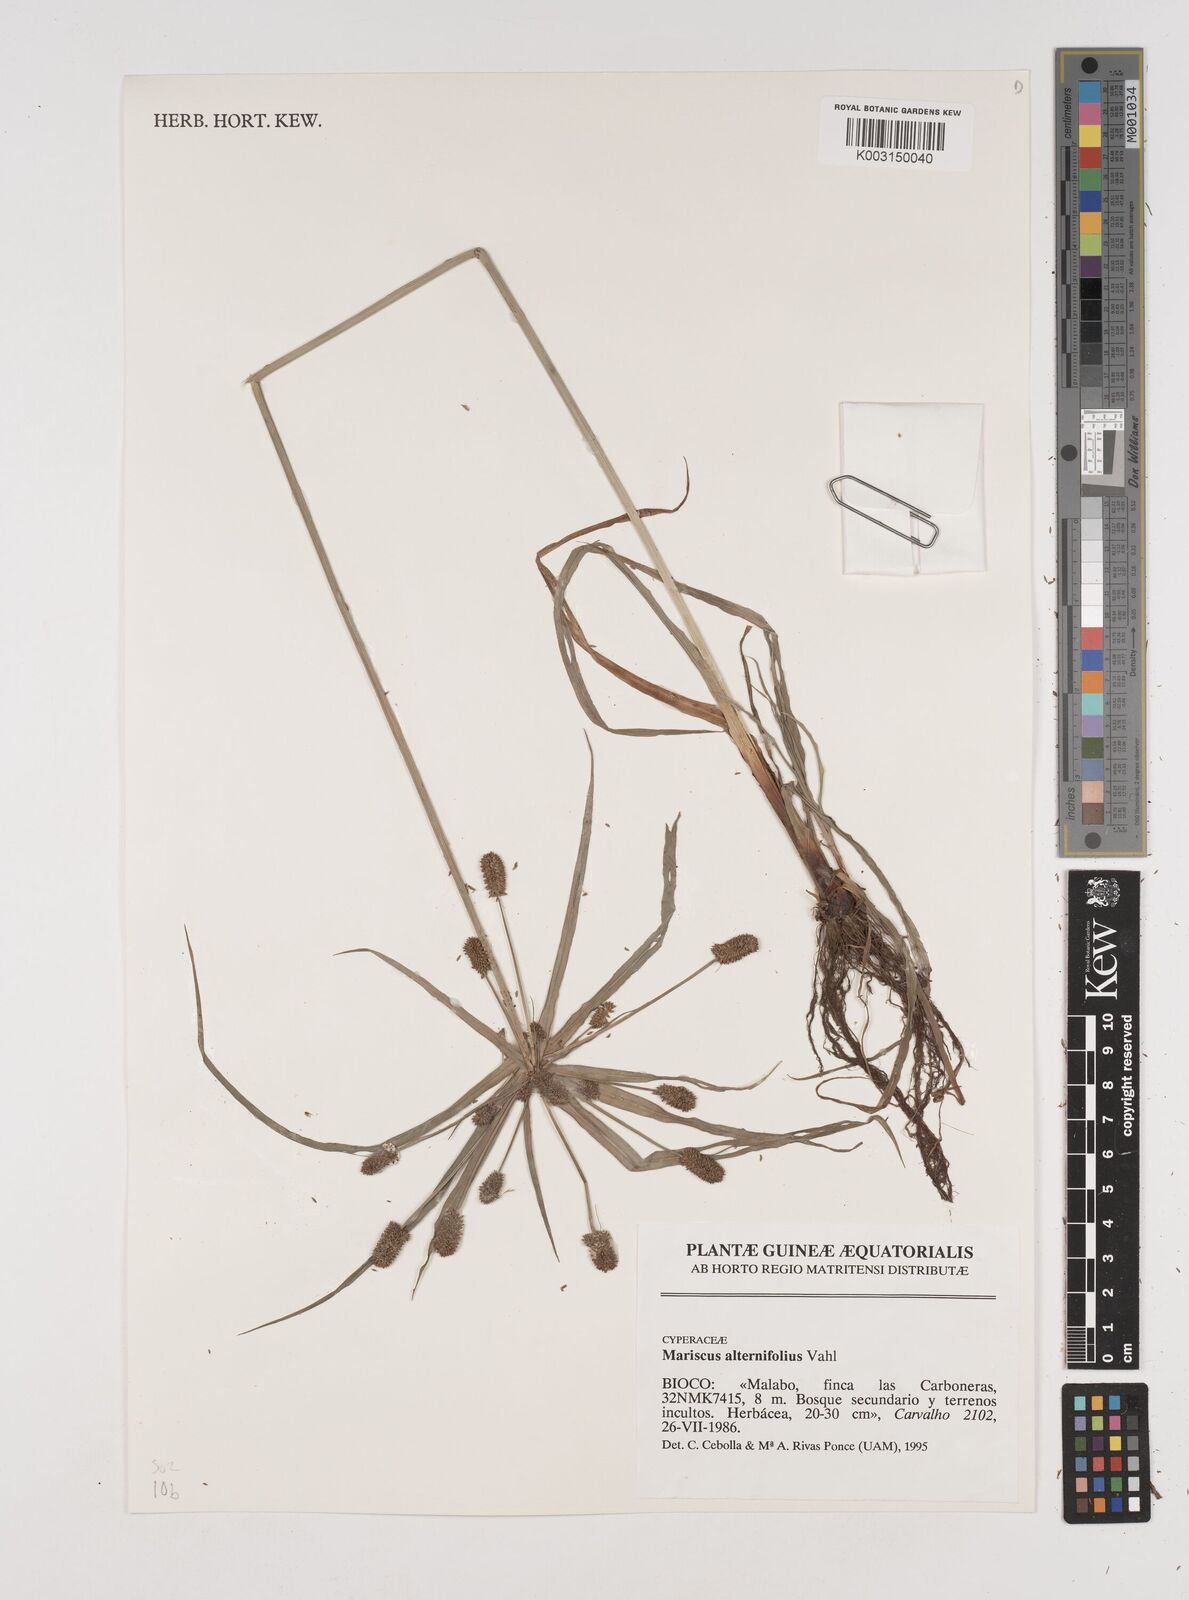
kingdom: Plantae
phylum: Tracheophyta
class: Liliopsida
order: Poales
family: Cyperaceae
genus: Cyperus
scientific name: Cyperus cyperoides
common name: Pacific island flat sedge
